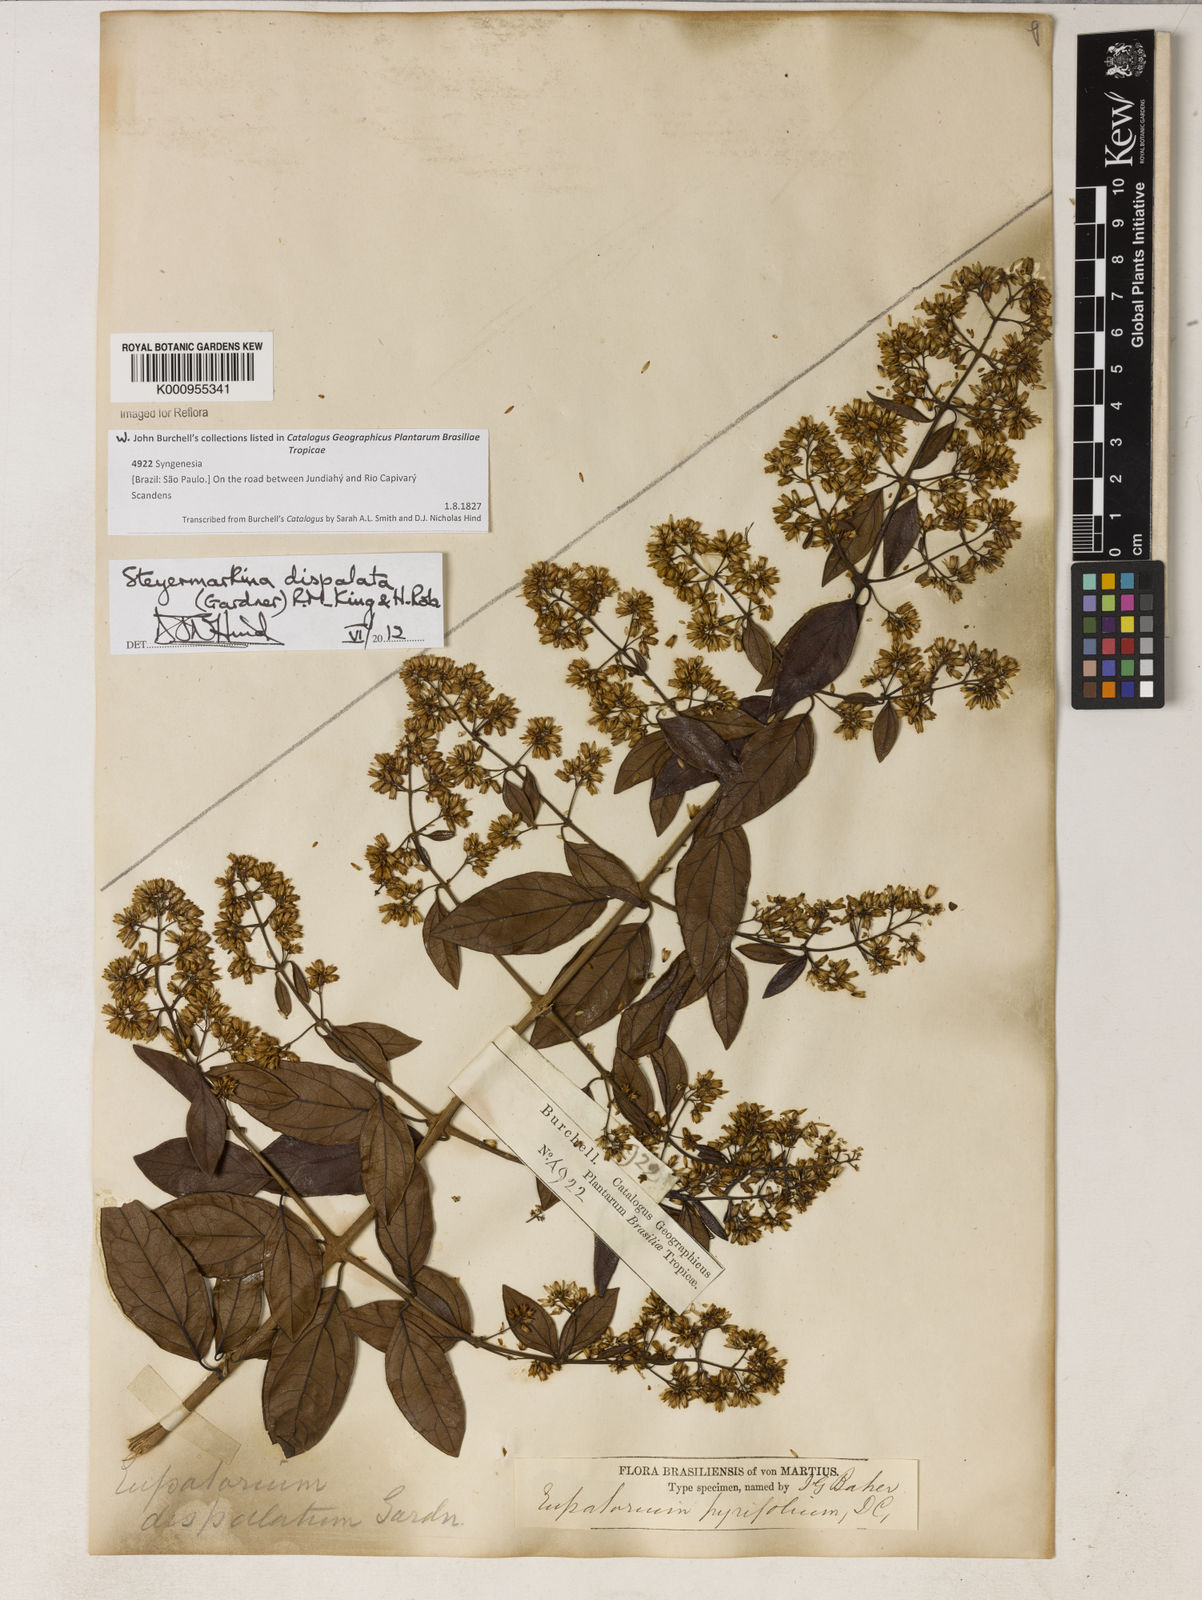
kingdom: Plantae
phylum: Tracheophyta
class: Magnoliopsida
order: Asterales
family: Asteraceae
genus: Steyermarkina
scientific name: Steyermarkina dispalata
